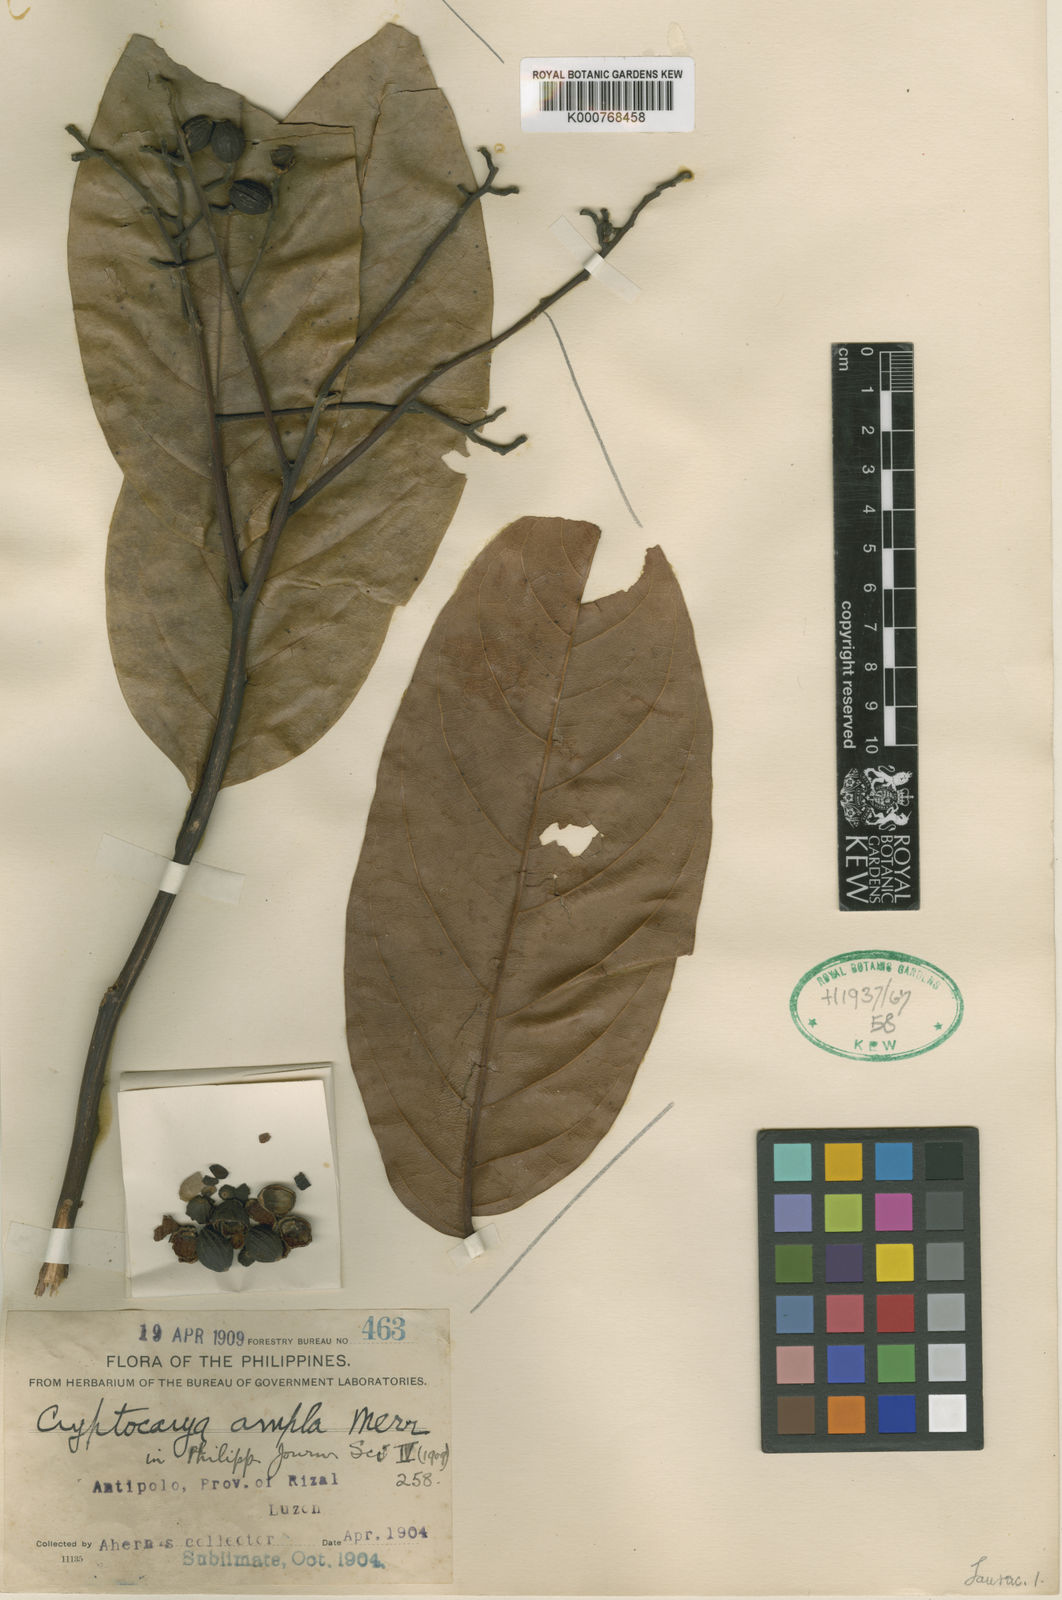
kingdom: Plantae
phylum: Tracheophyta
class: Magnoliopsida
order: Laurales
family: Lauraceae
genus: Cryptocarya
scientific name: Cryptocarya ampla
